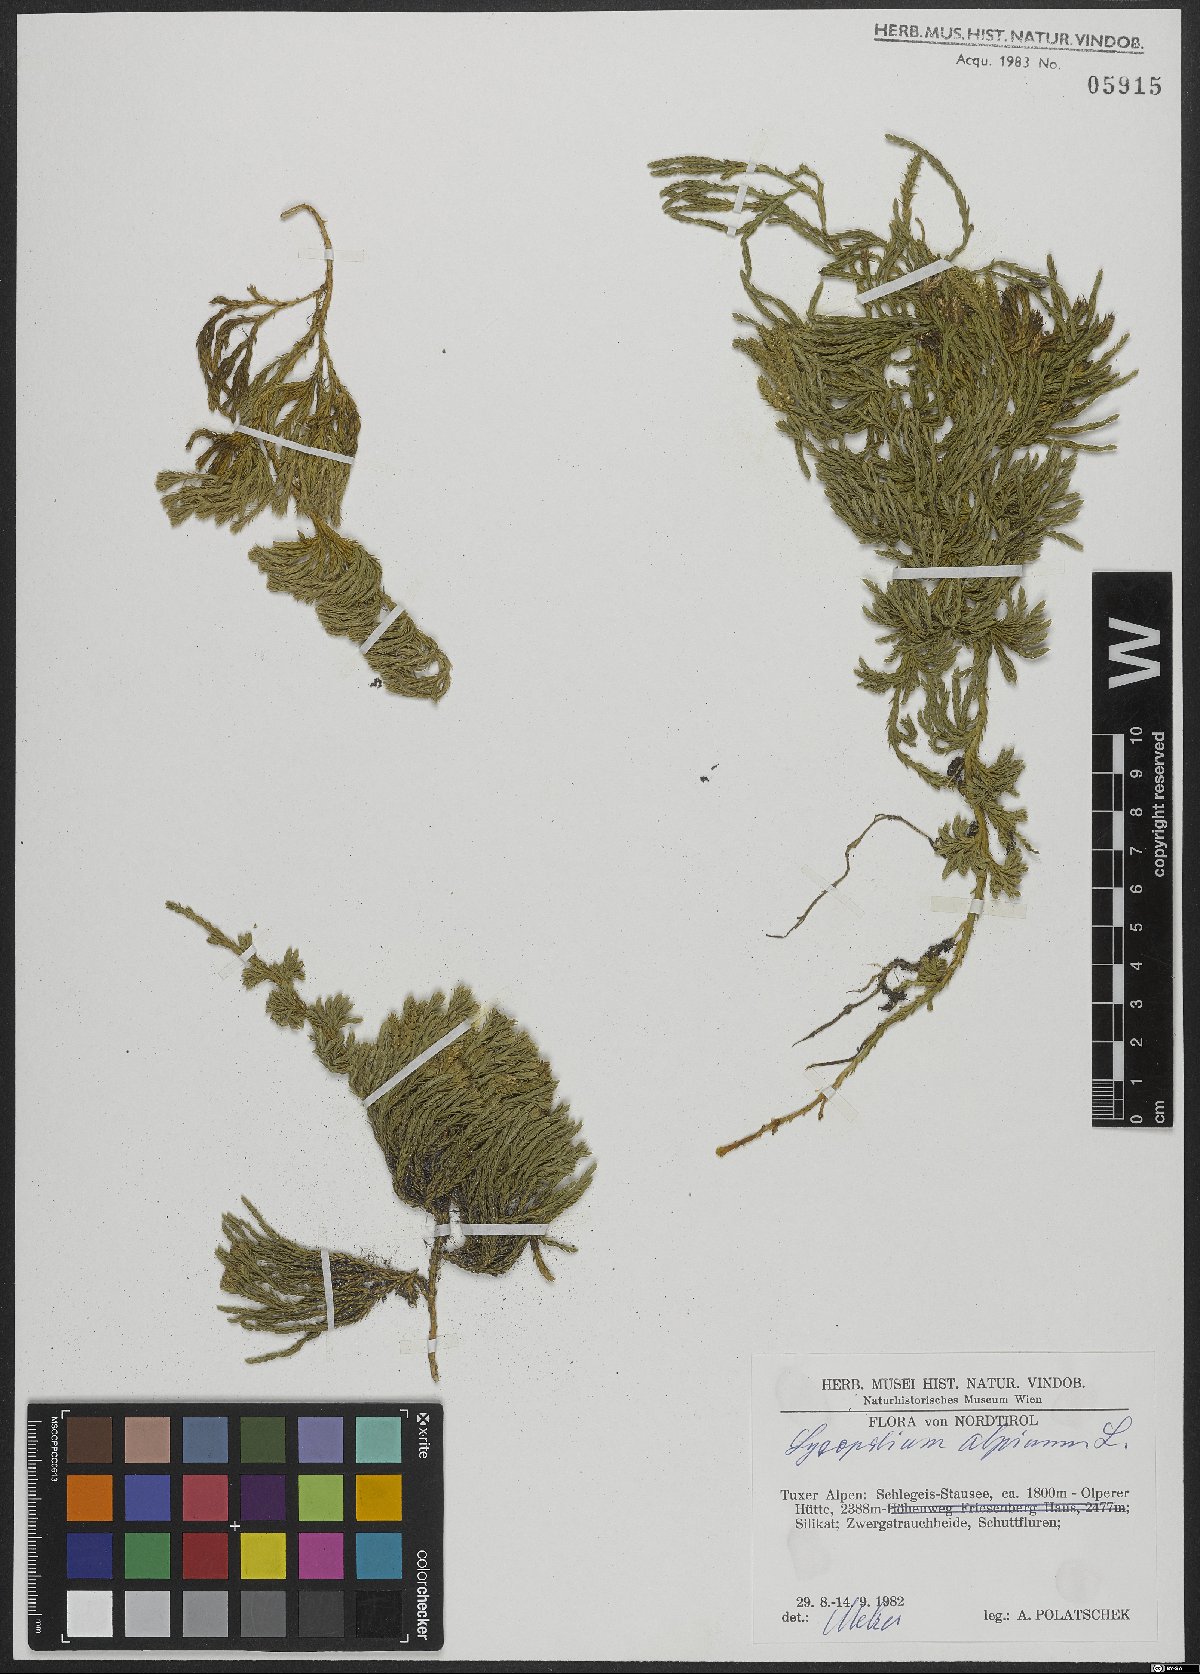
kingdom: Plantae
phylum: Tracheophyta
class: Lycopodiopsida
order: Lycopodiales
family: Lycopodiaceae
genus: Diphasiastrum
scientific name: Diphasiastrum alpinum
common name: Alpine clubmoss
